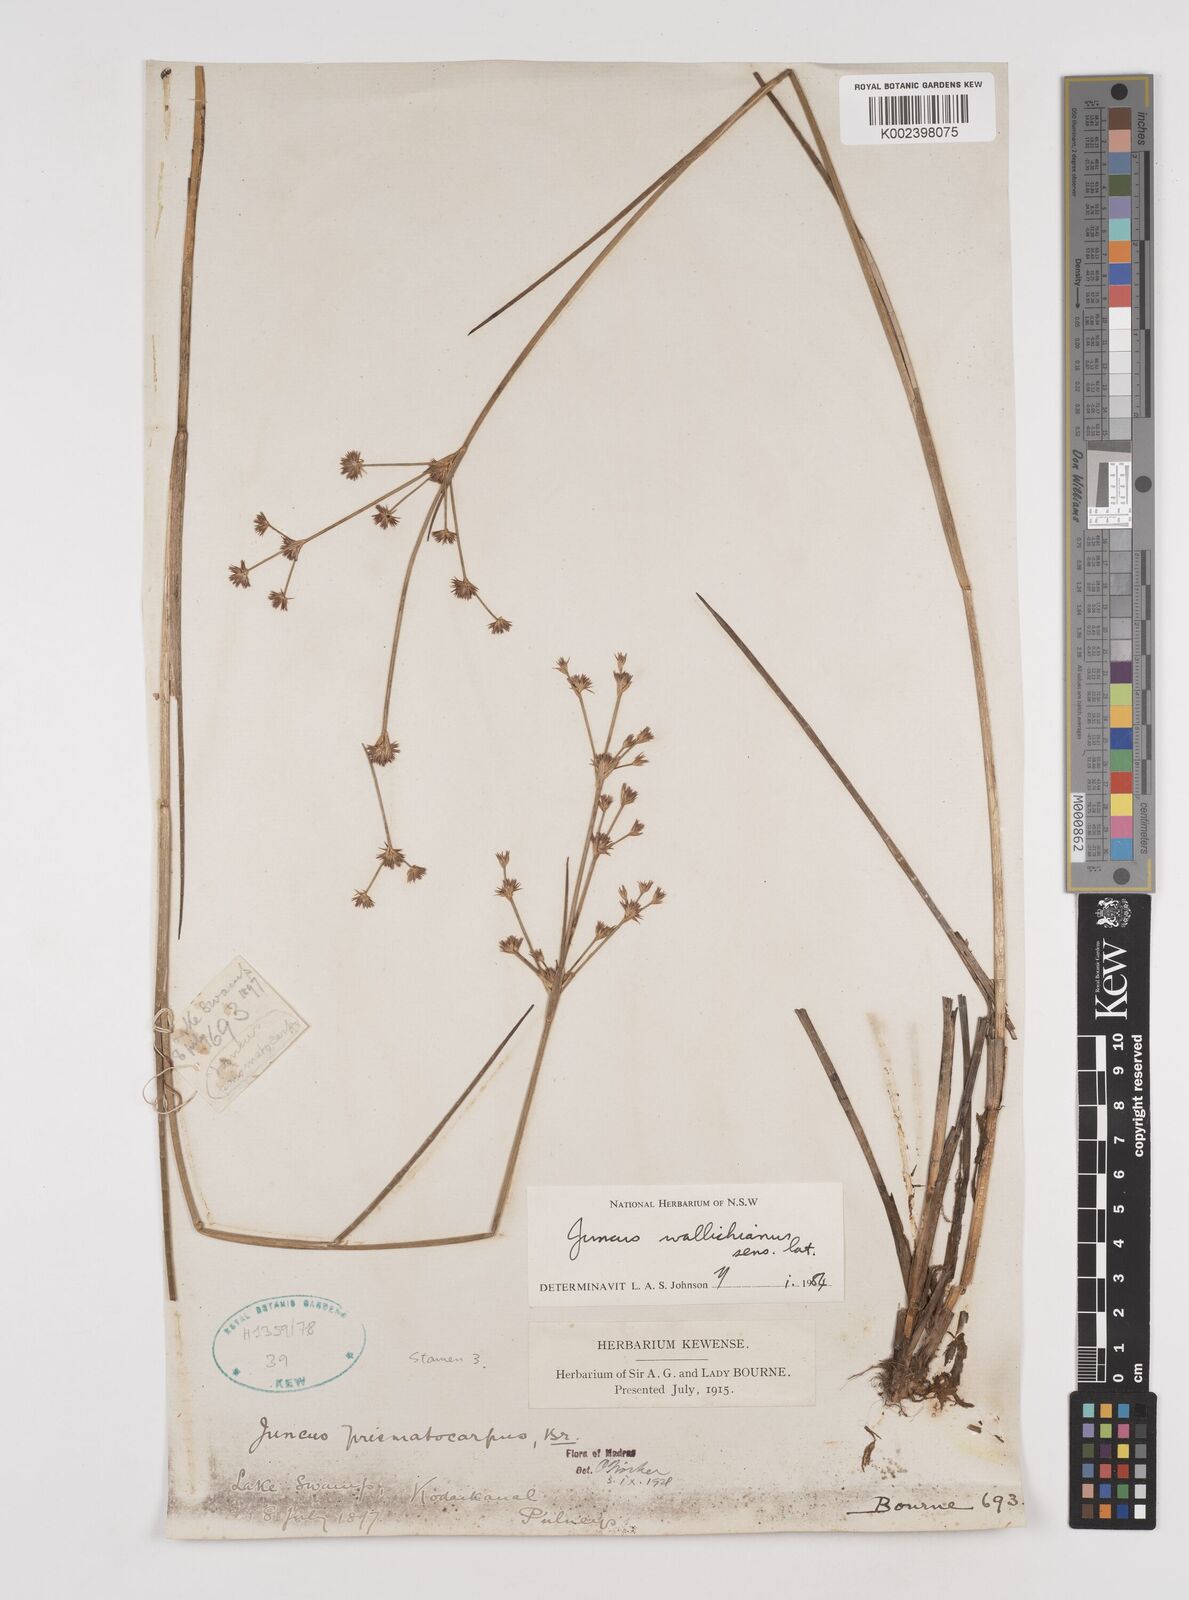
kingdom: Plantae
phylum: Tracheophyta
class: Liliopsida
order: Poales
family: Juncaceae
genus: Juncus
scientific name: Juncus wallichianus
